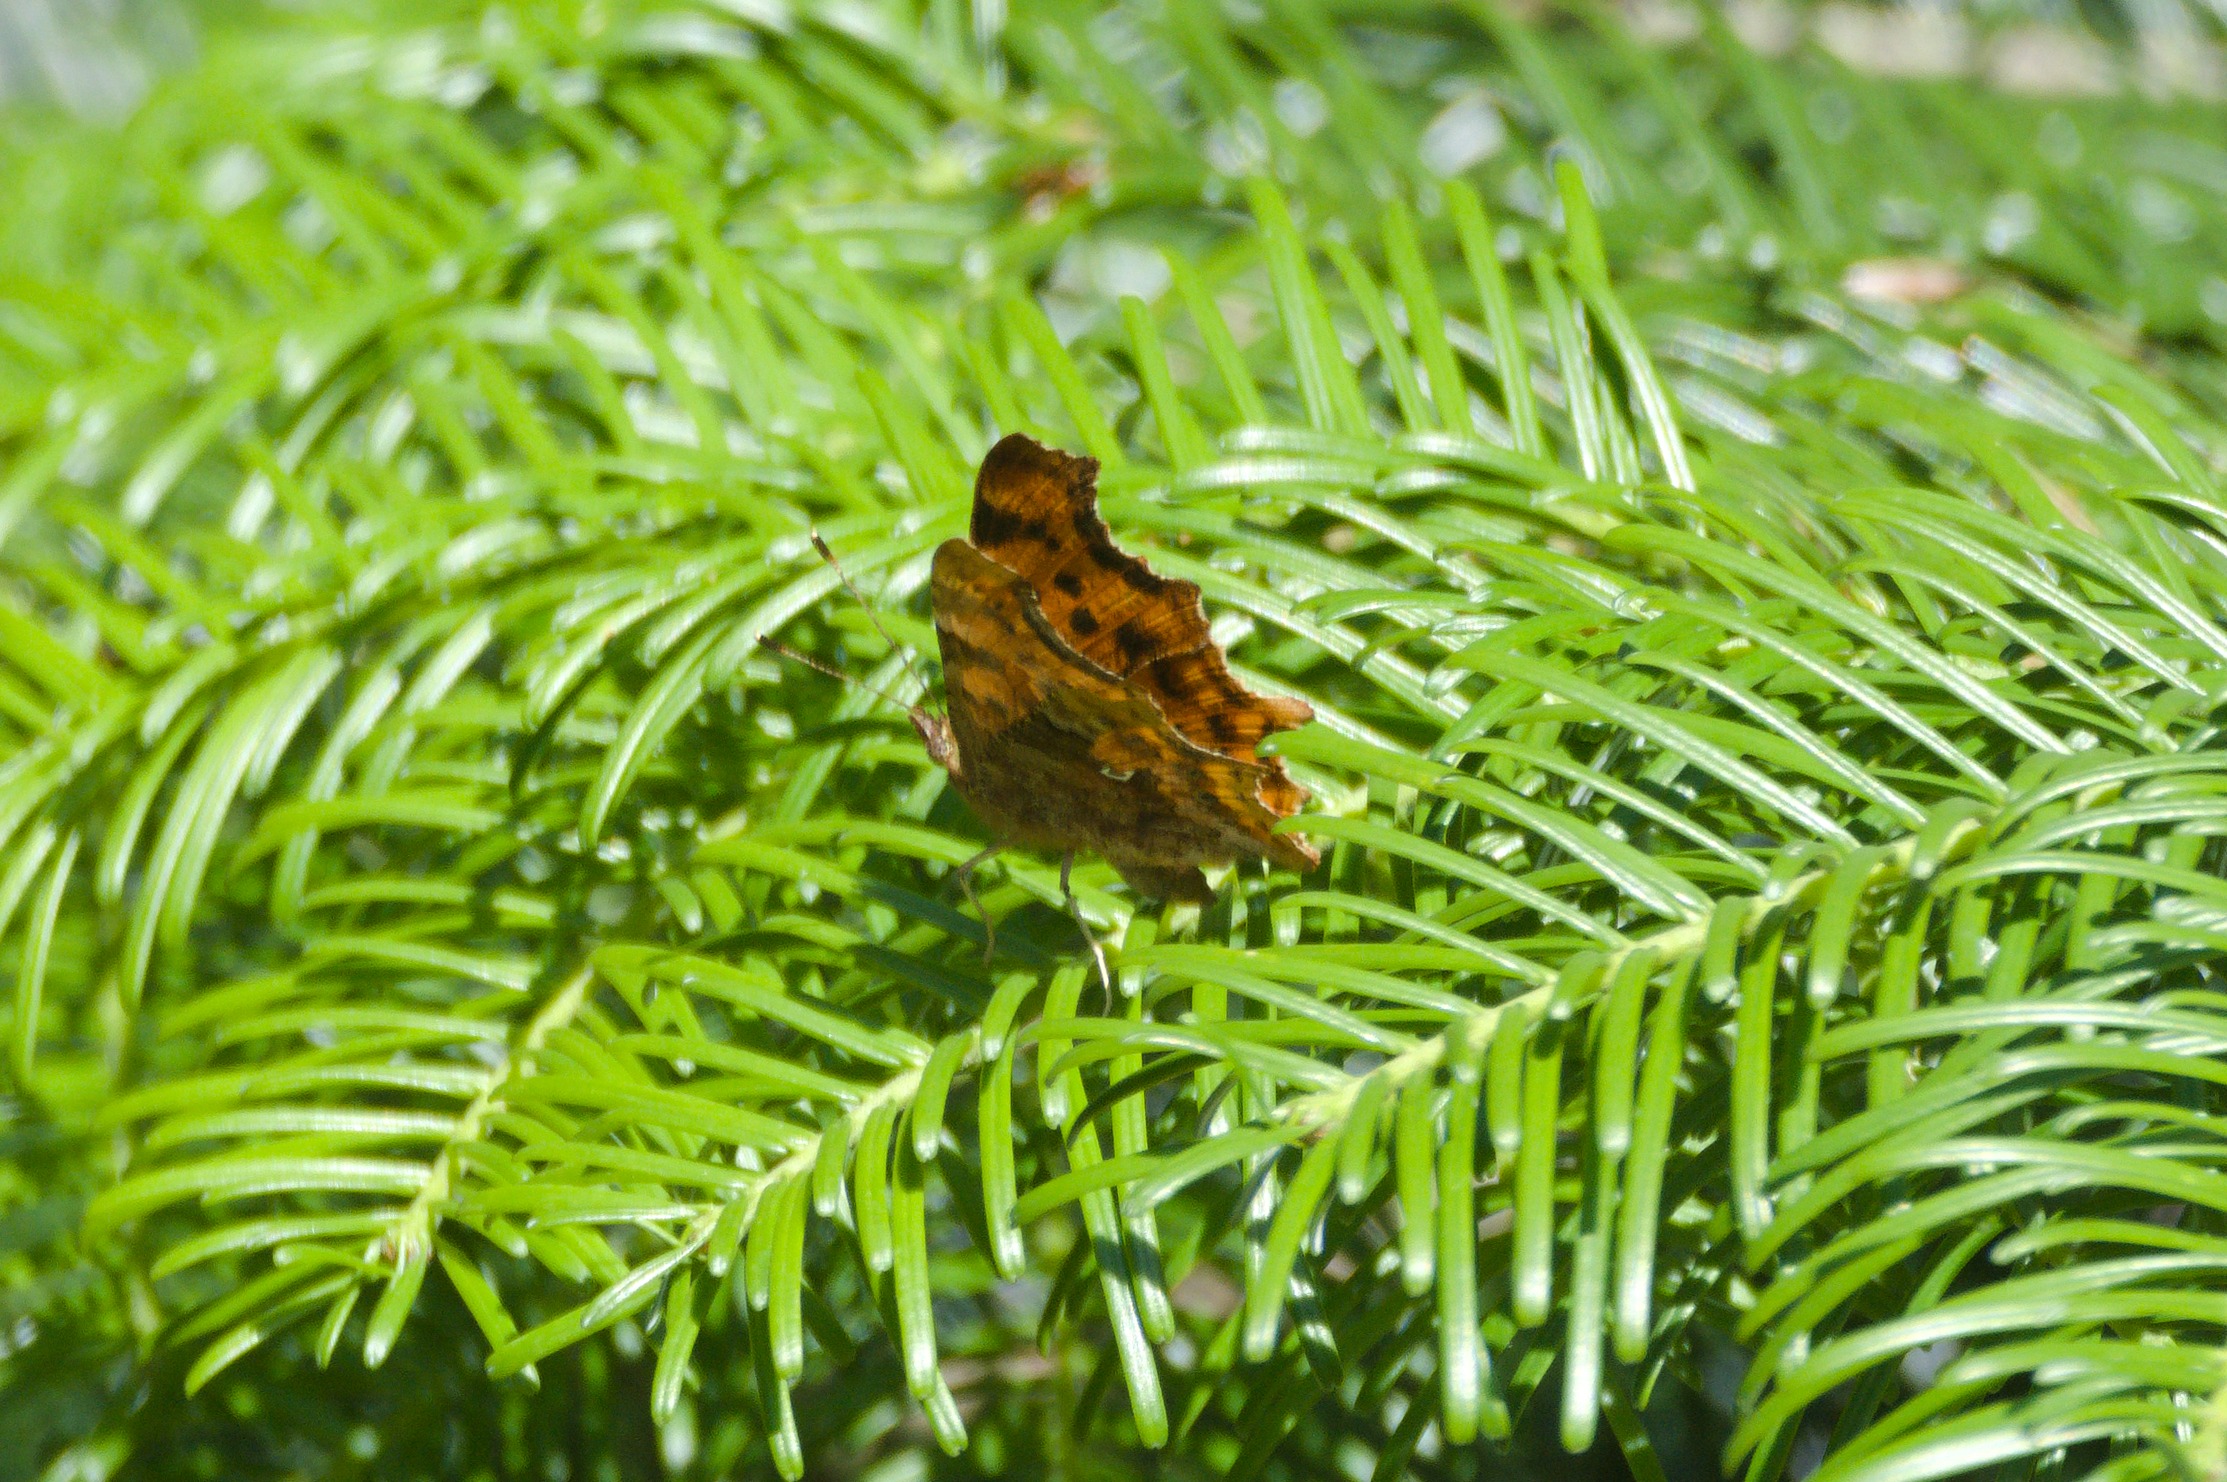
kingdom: Animalia
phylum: Arthropoda
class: Insecta
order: Lepidoptera
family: Nymphalidae
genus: Polygonia
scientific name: Polygonia c-album
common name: Det hvide C
